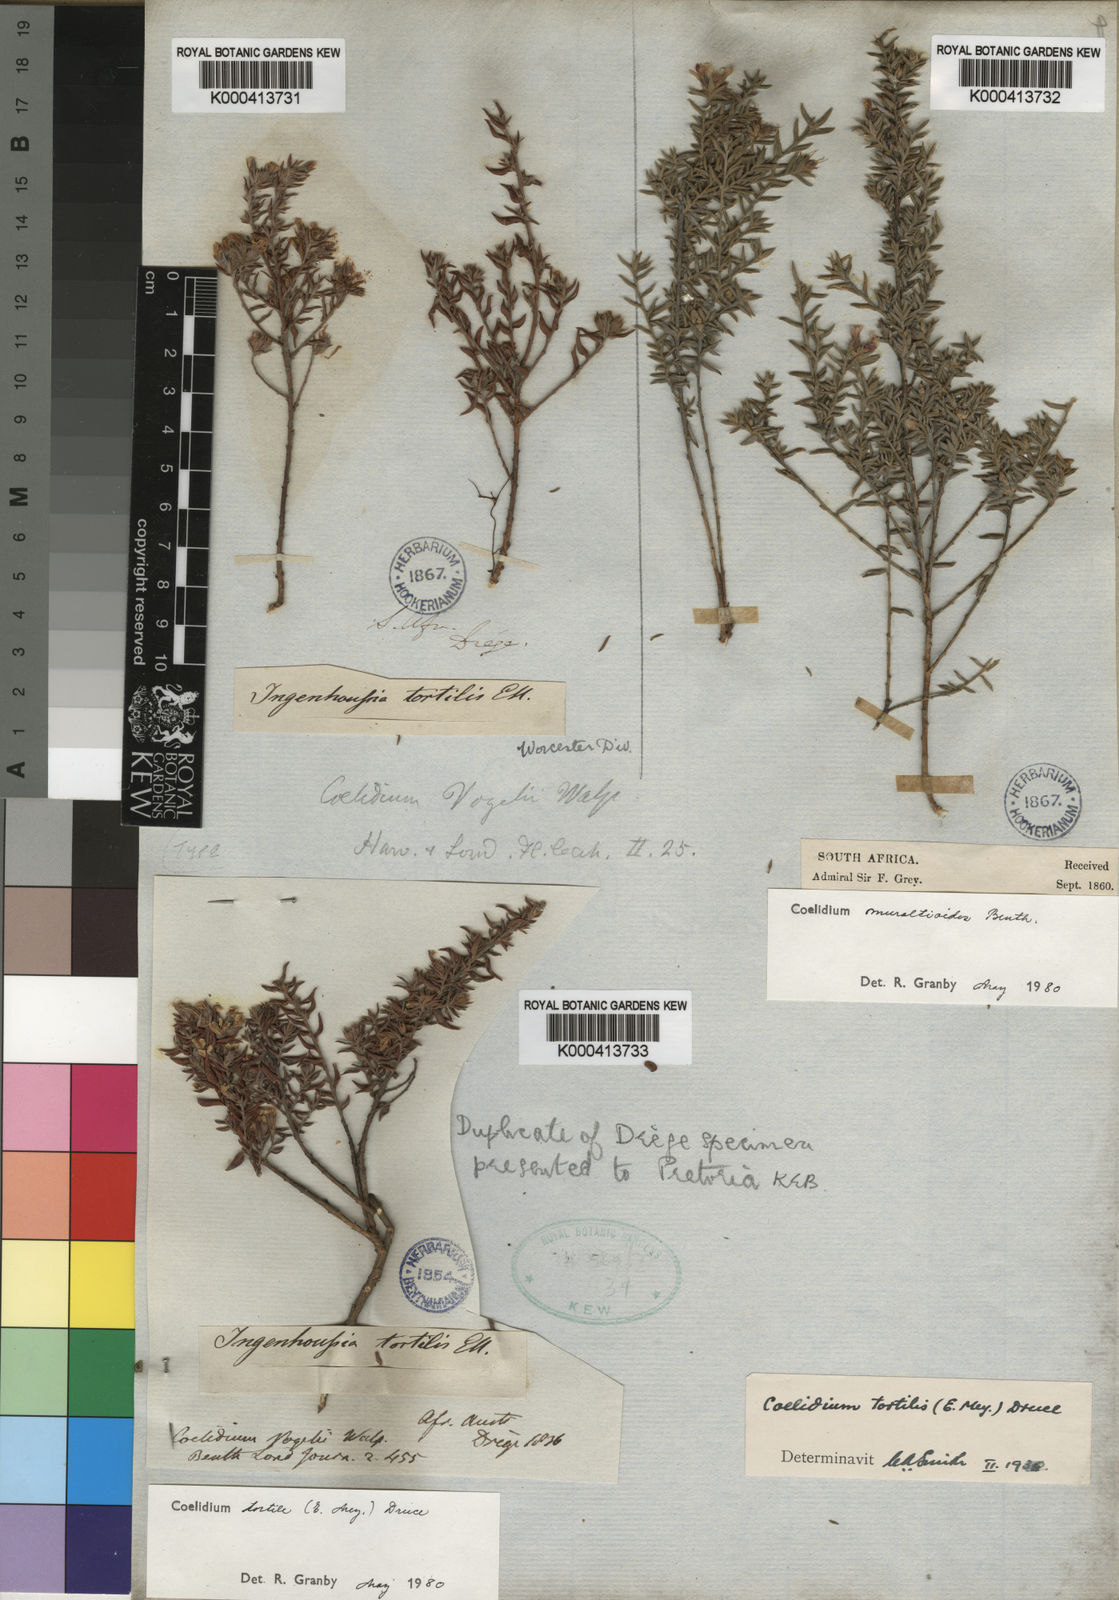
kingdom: Plantae
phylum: Tracheophyta
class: Magnoliopsida
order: Fabales
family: Fabaceae
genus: Amphithalea
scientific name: Amphithalea muraltioides
